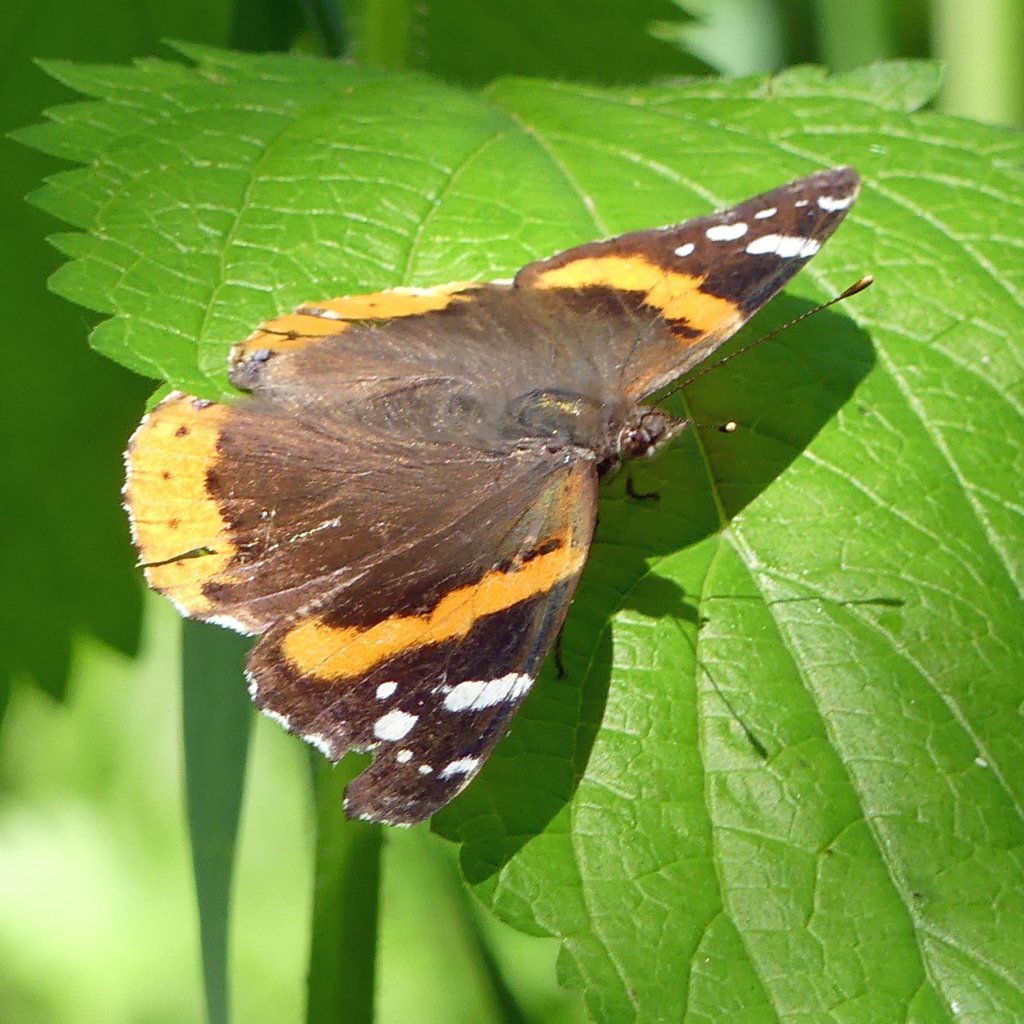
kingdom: Animalia
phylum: Arthropoda
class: Insecta
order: Lepidoptera
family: Nymphalidae
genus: Vanessa
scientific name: Vanessa atalanta
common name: Red Admiral
